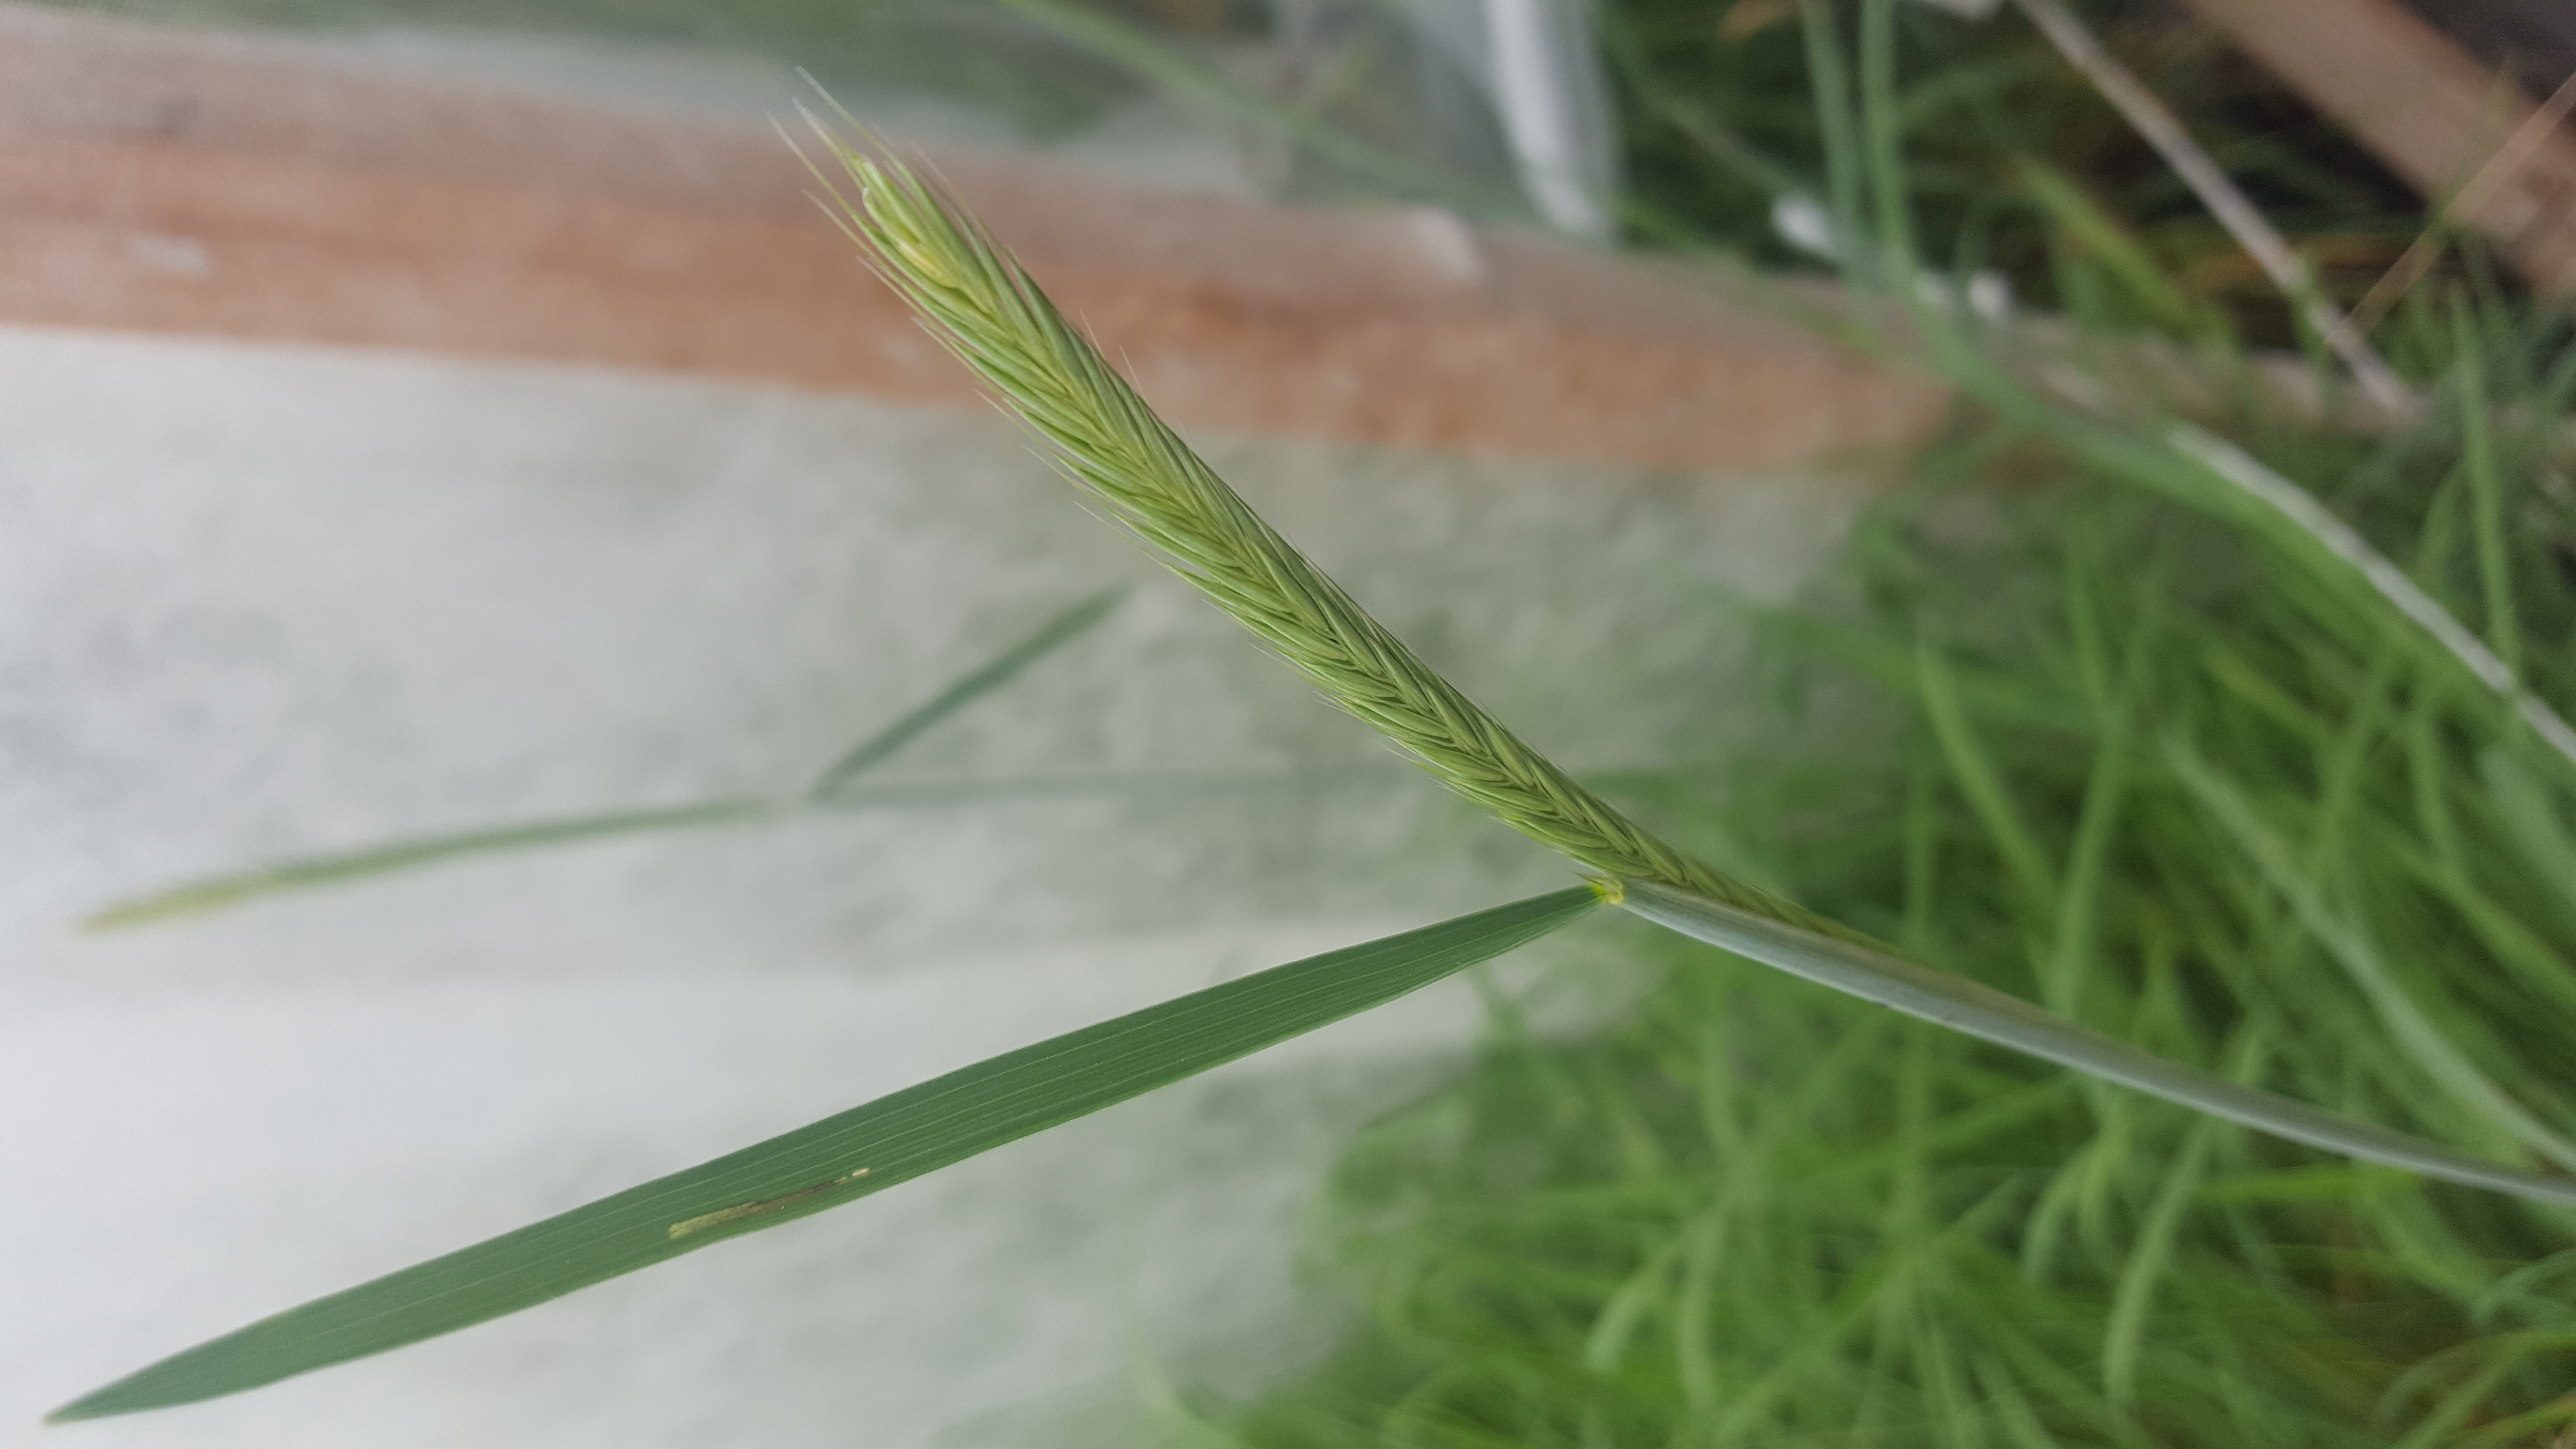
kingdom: Plantae
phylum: Tracheophyta
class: Liliopsida
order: Poales
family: Poaceae
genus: Hordeum
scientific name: Hordeum tetraploidum
